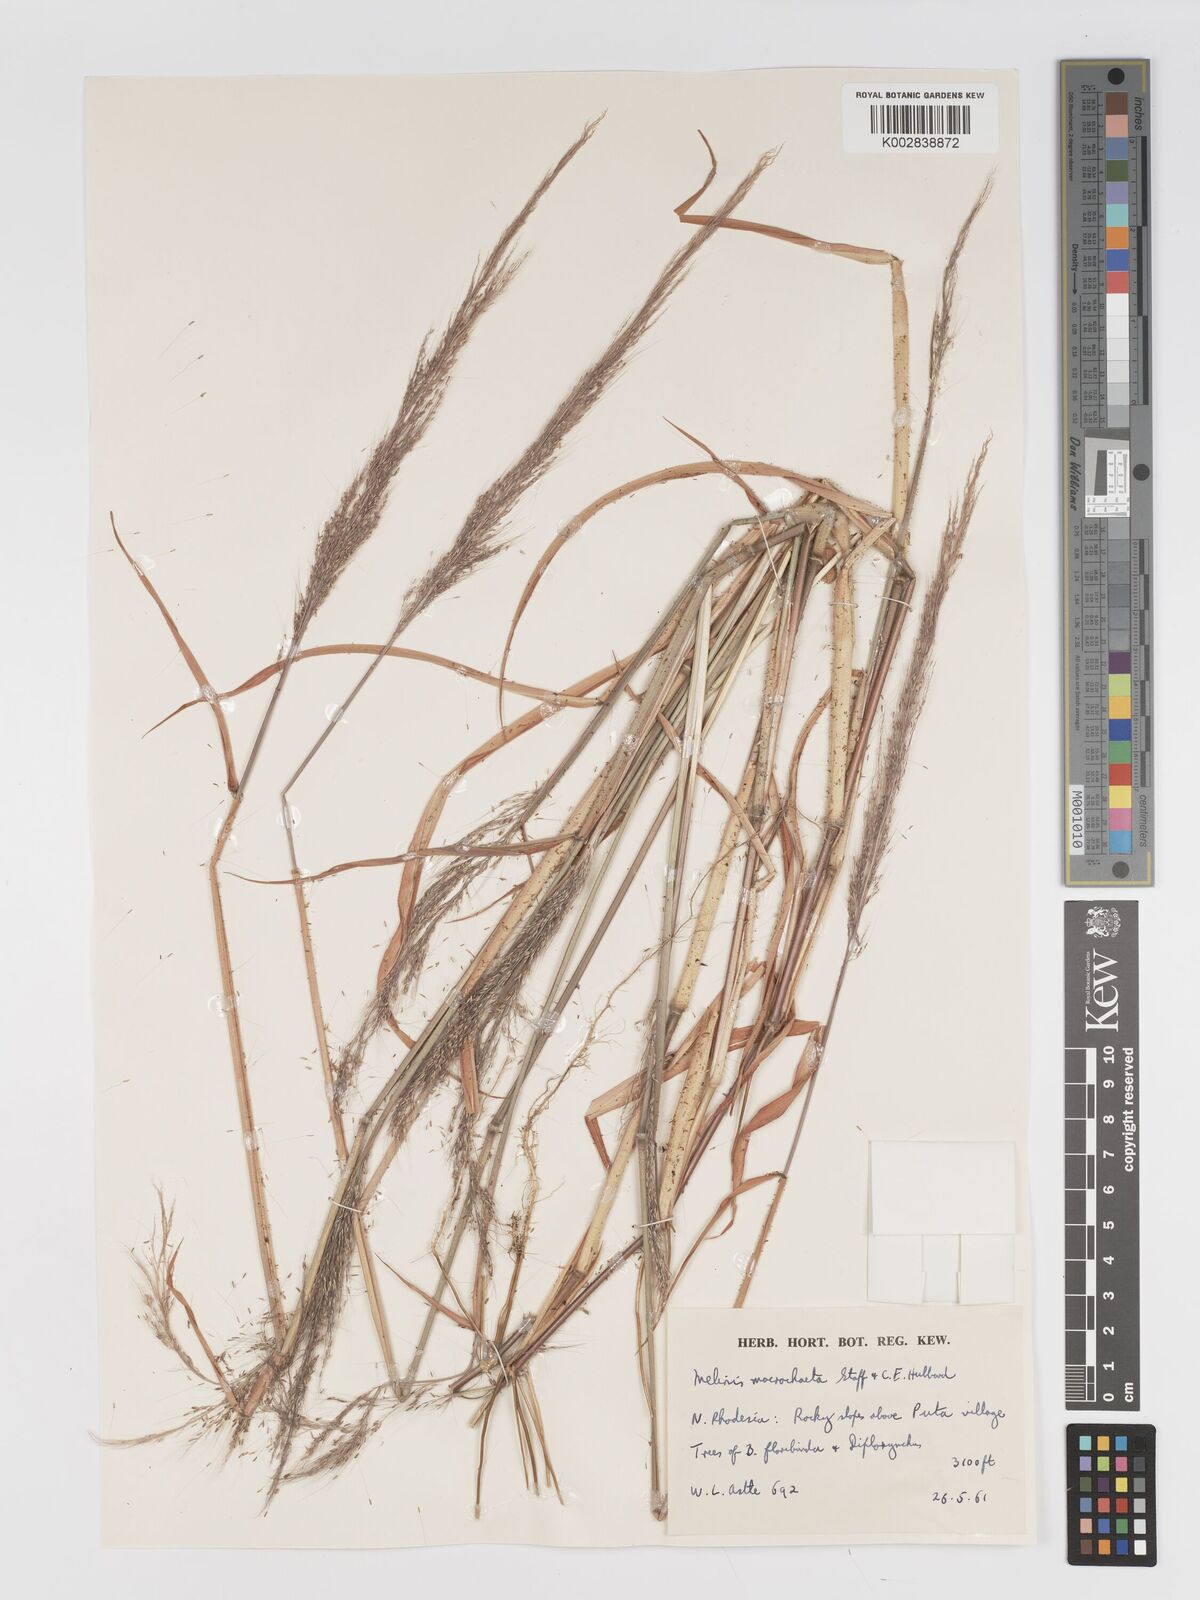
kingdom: Plantae
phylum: Tracheophyta
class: Liliopsida
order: Poales
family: Poaceae
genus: Melinis
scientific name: Melinis macrochaeta
